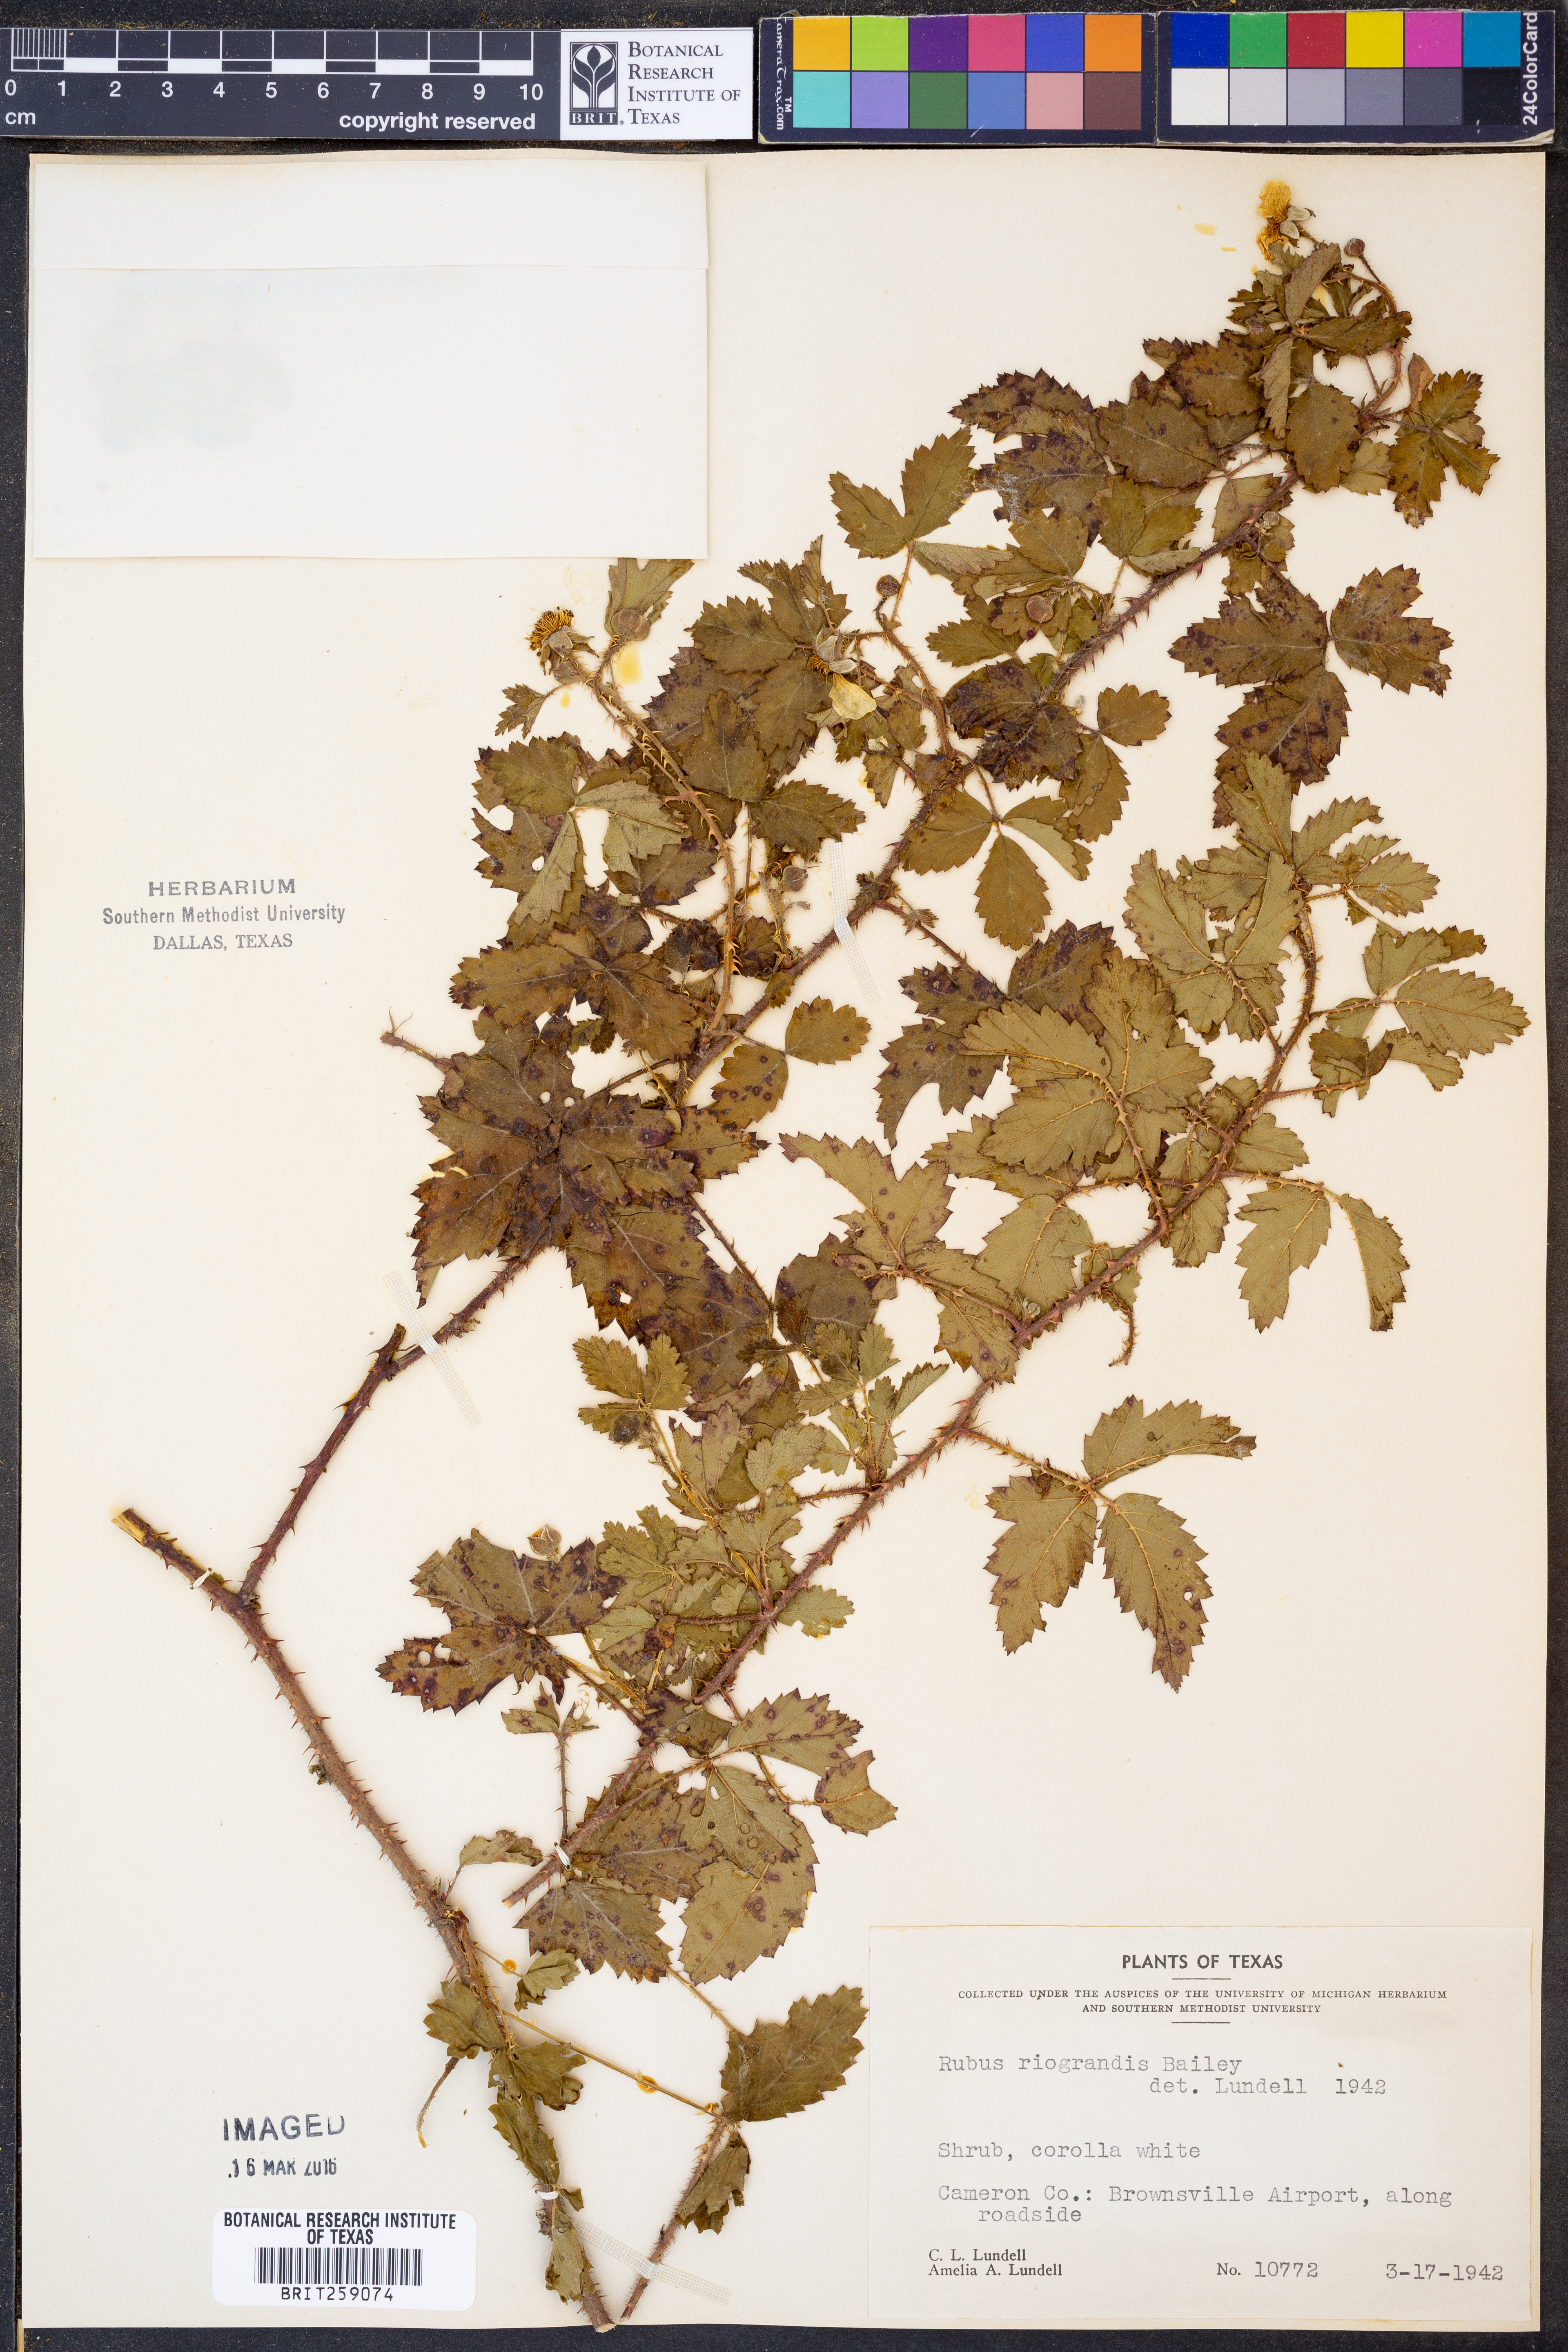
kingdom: Plantae
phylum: Tracheophyta
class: Magnoliopsida
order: Rosales
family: Rosaceae
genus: Rubus
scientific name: Rubus riograndis
